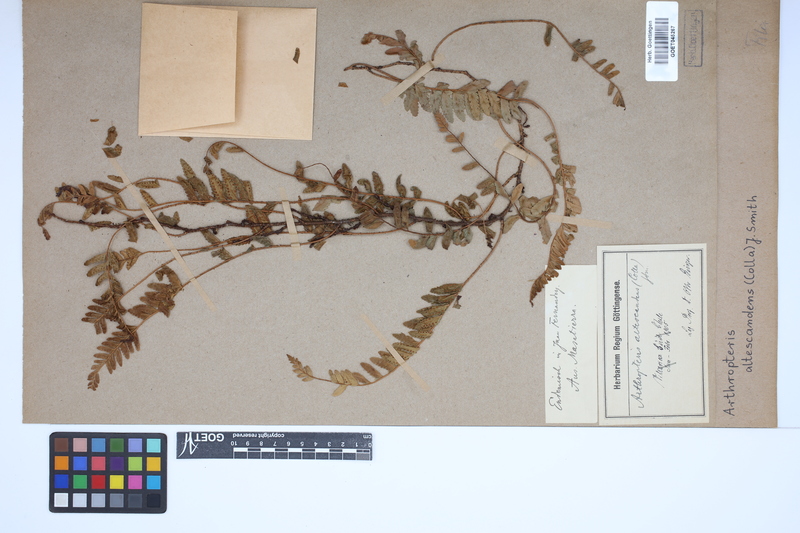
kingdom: Plantae
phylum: Tracheophyta
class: Polypodiopsida
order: Polypodiales
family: Tectariaceae
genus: Arthropteris
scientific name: Arthropteris altescandens
